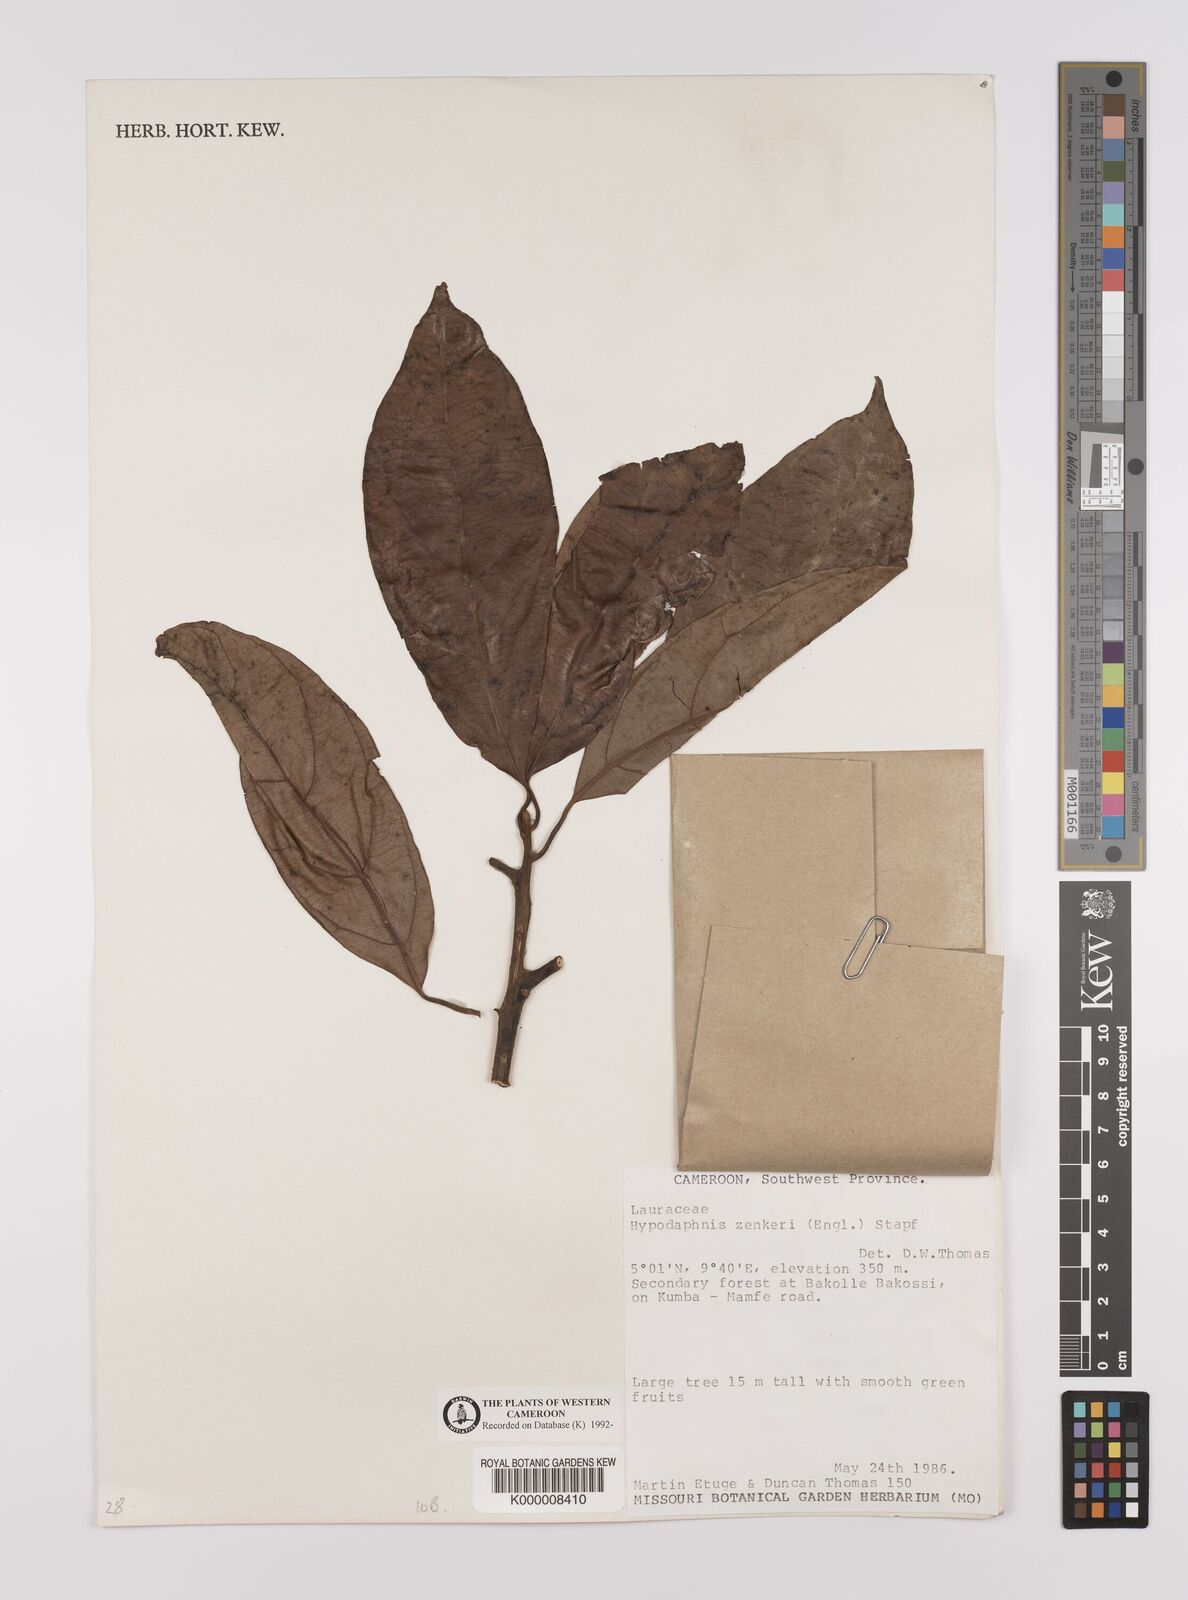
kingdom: Plantae
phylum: Tracheophyta
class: Magnoliopsida
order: Laurales
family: Lauraceae
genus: Hypodaphnis
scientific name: Hypodaphnis zenkeri
